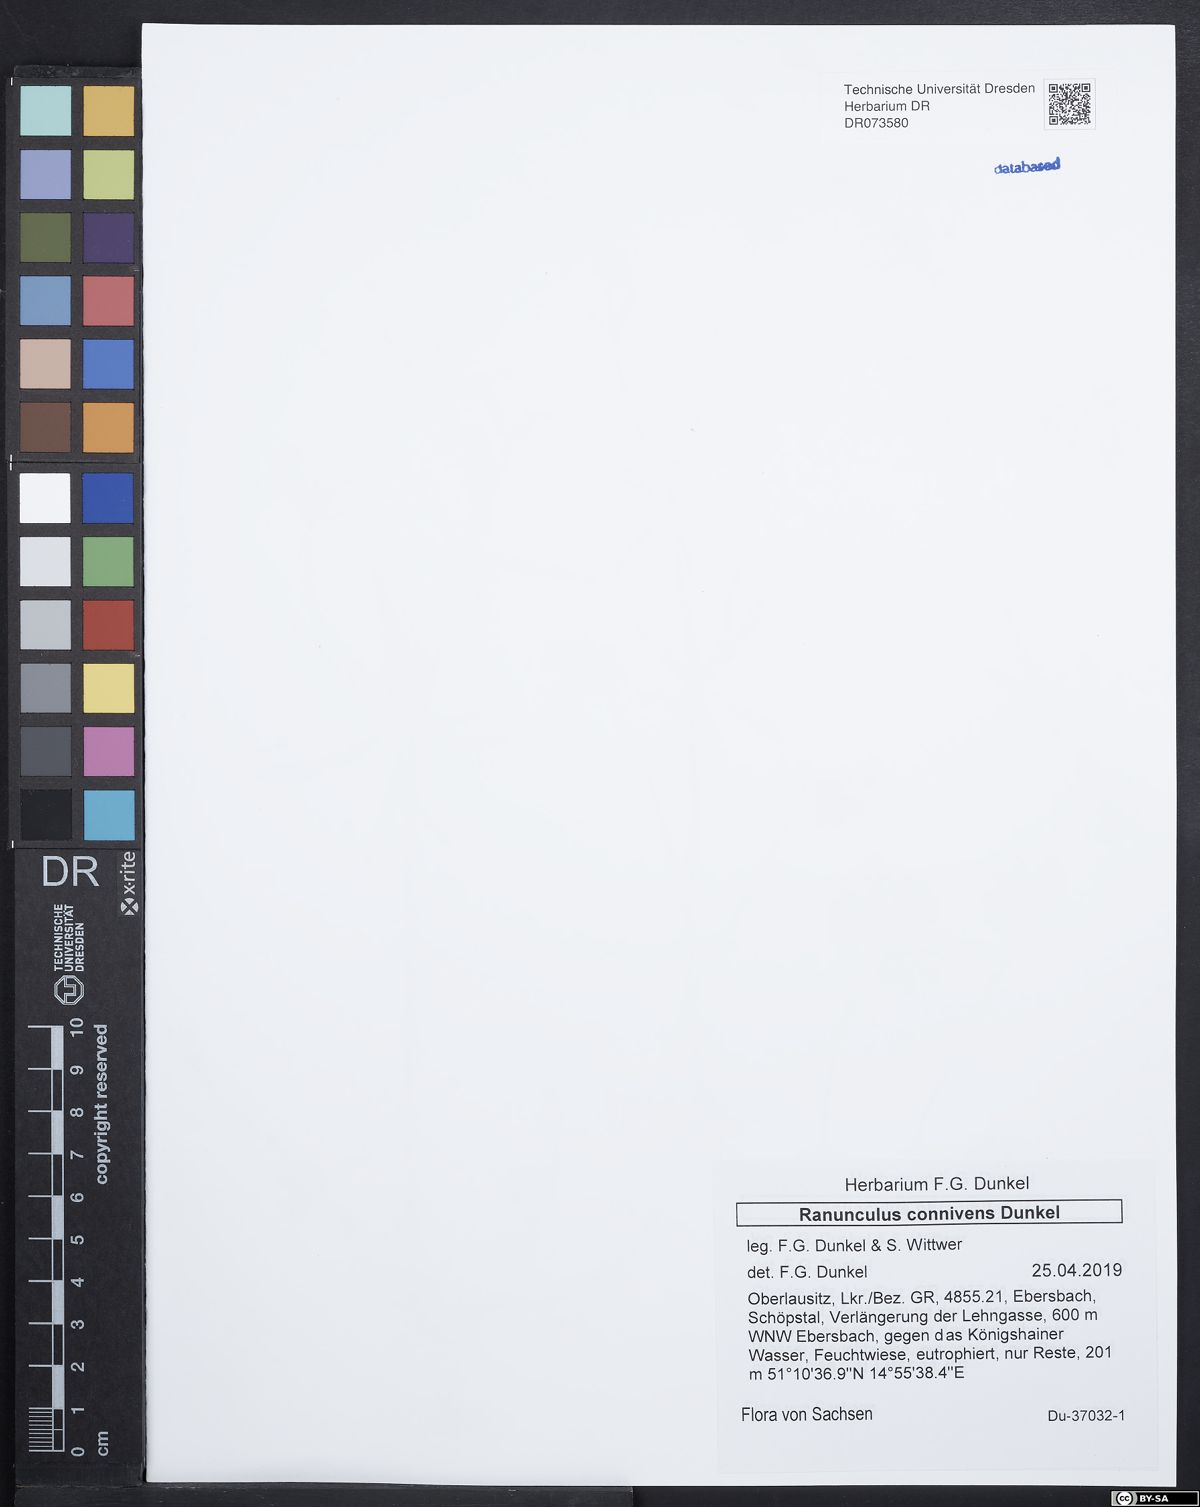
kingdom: Plantae
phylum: Tracheophyta
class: Magnoliopsida
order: Ranunculales
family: Ranunculaceae
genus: Ranunculus
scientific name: Ranunculus connivens
